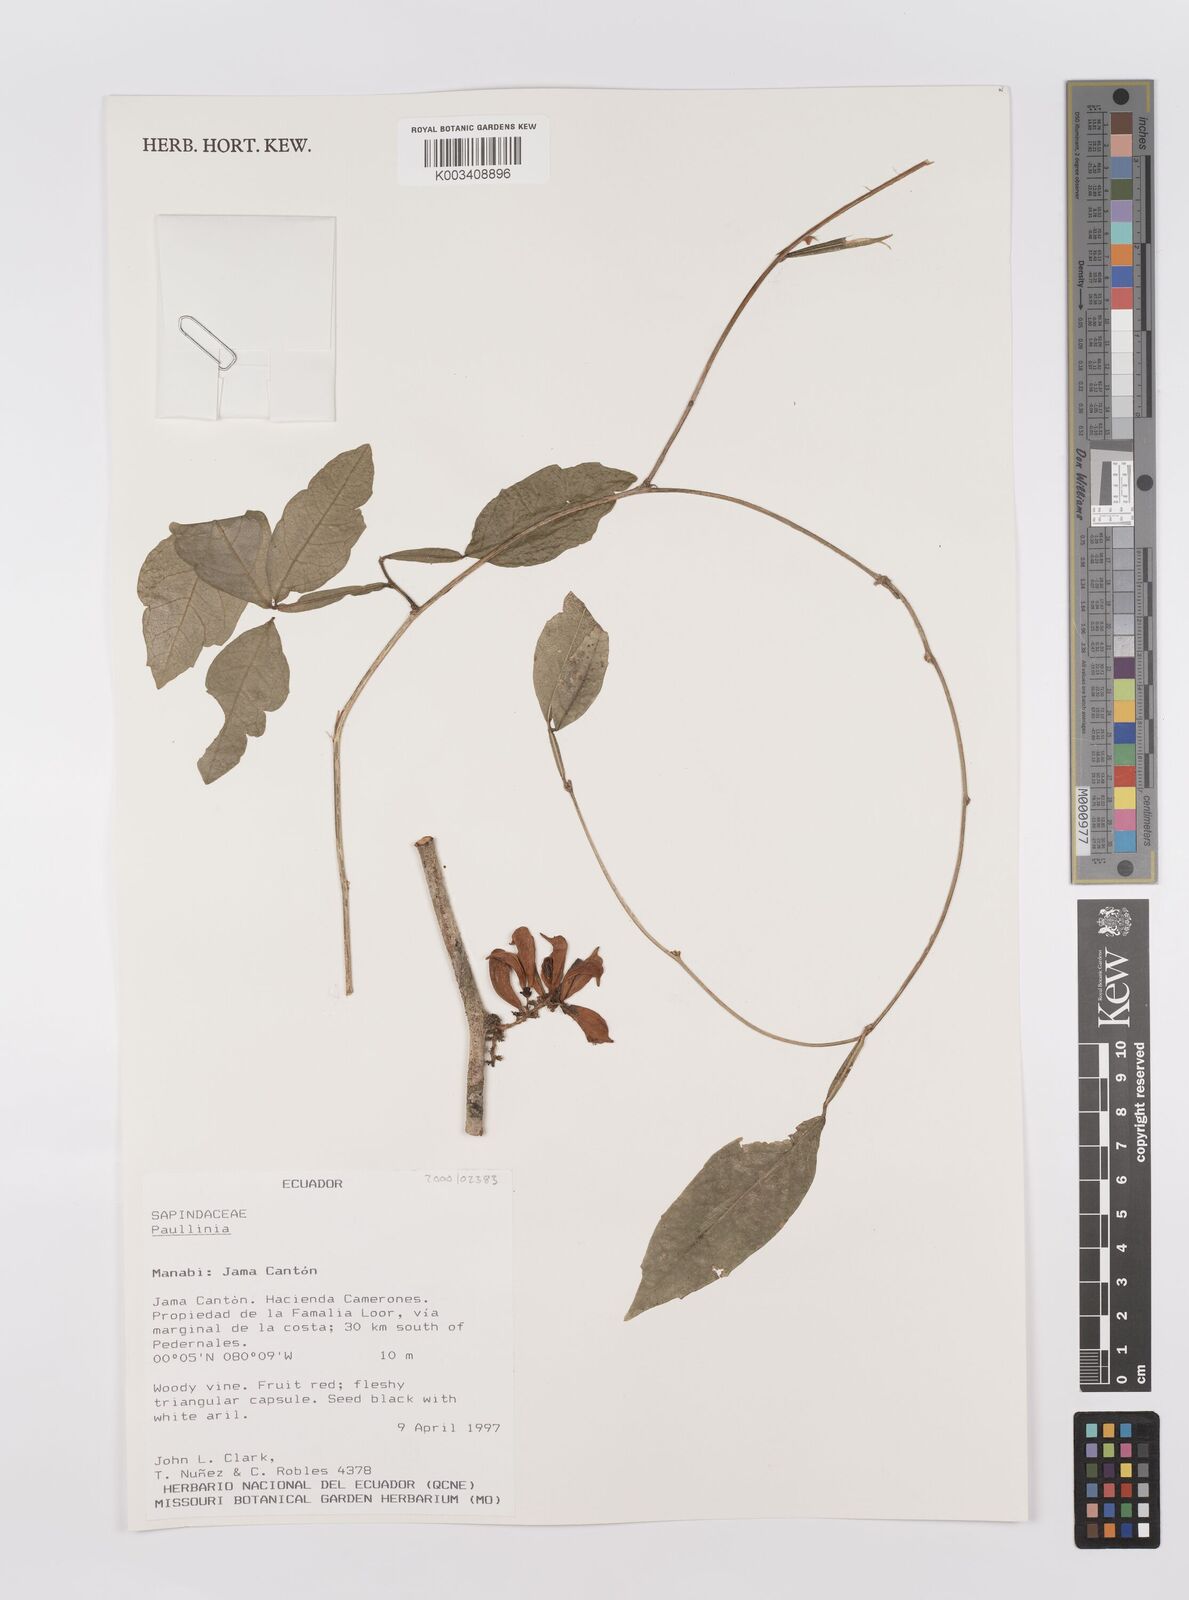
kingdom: Plantae
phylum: Tracheophyta
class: Magnoliopsida
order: Sapindales
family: Sapindaceae
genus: Paullinia
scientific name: Paullinia
